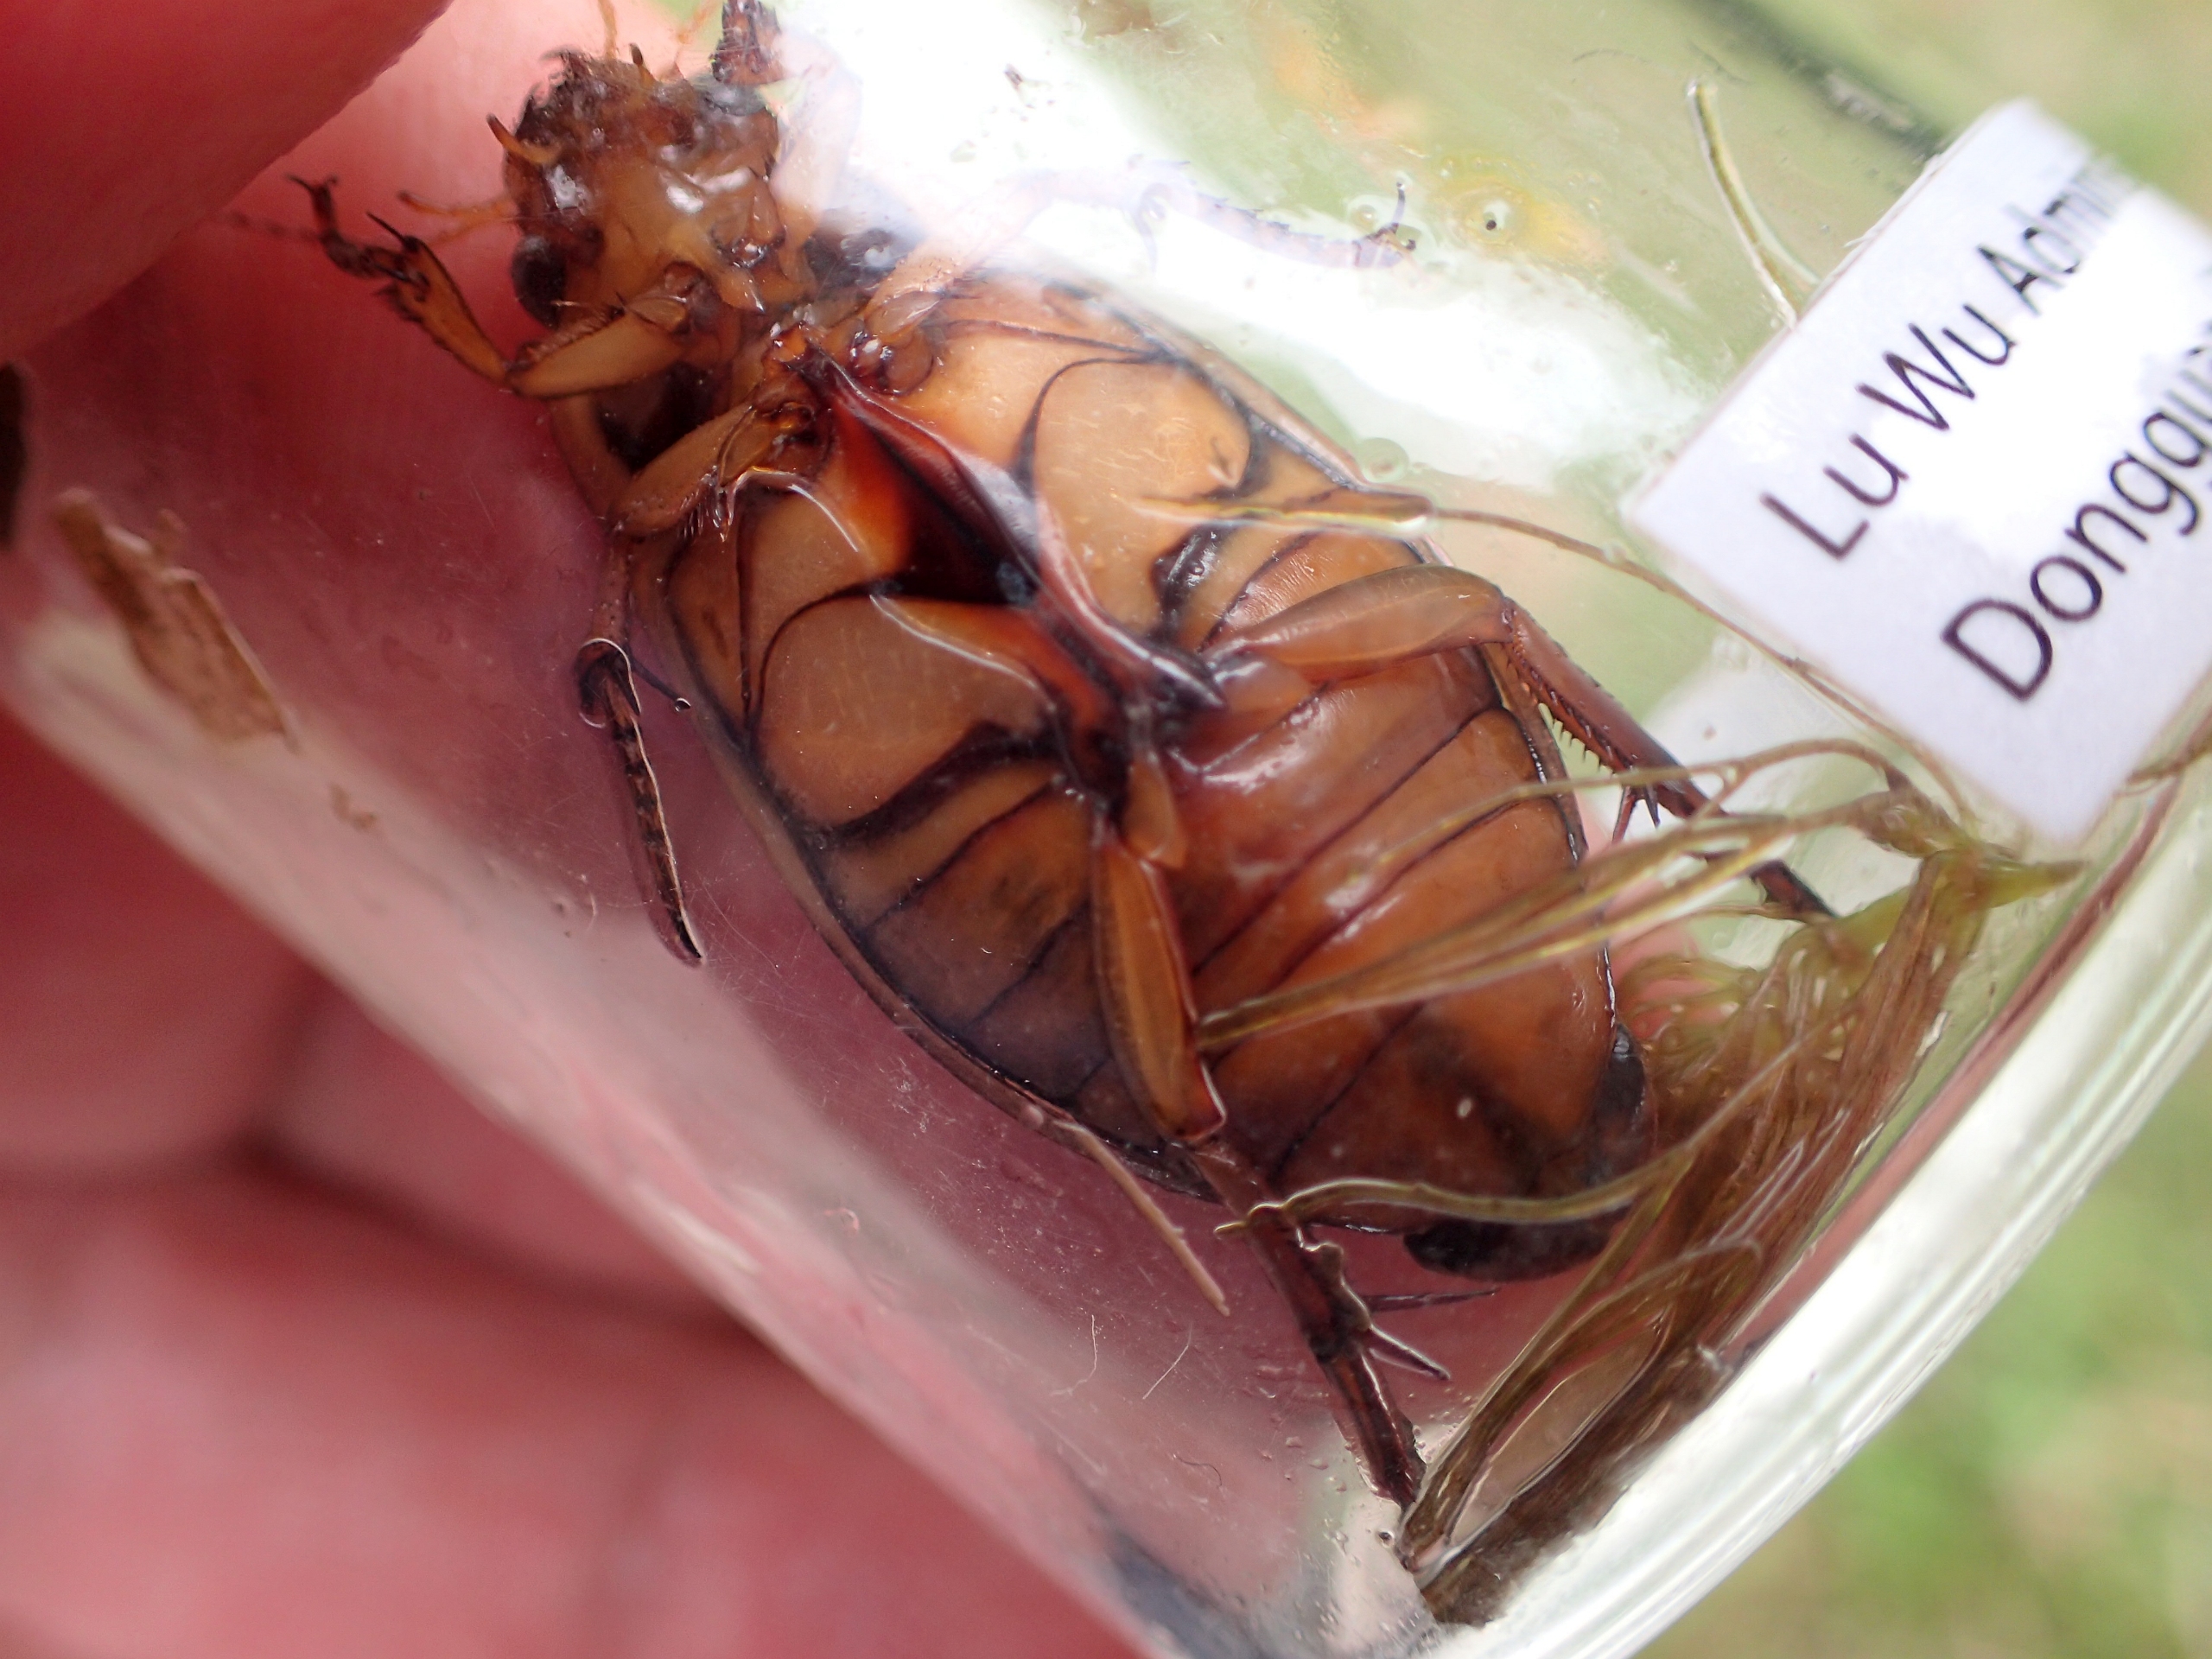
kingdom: Animalia
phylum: Arthropoda
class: Insecta
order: Coleoptera
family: Dytiscidae
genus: Dytiscus
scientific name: Dytiscus marginalis
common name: Stor vandkalv
